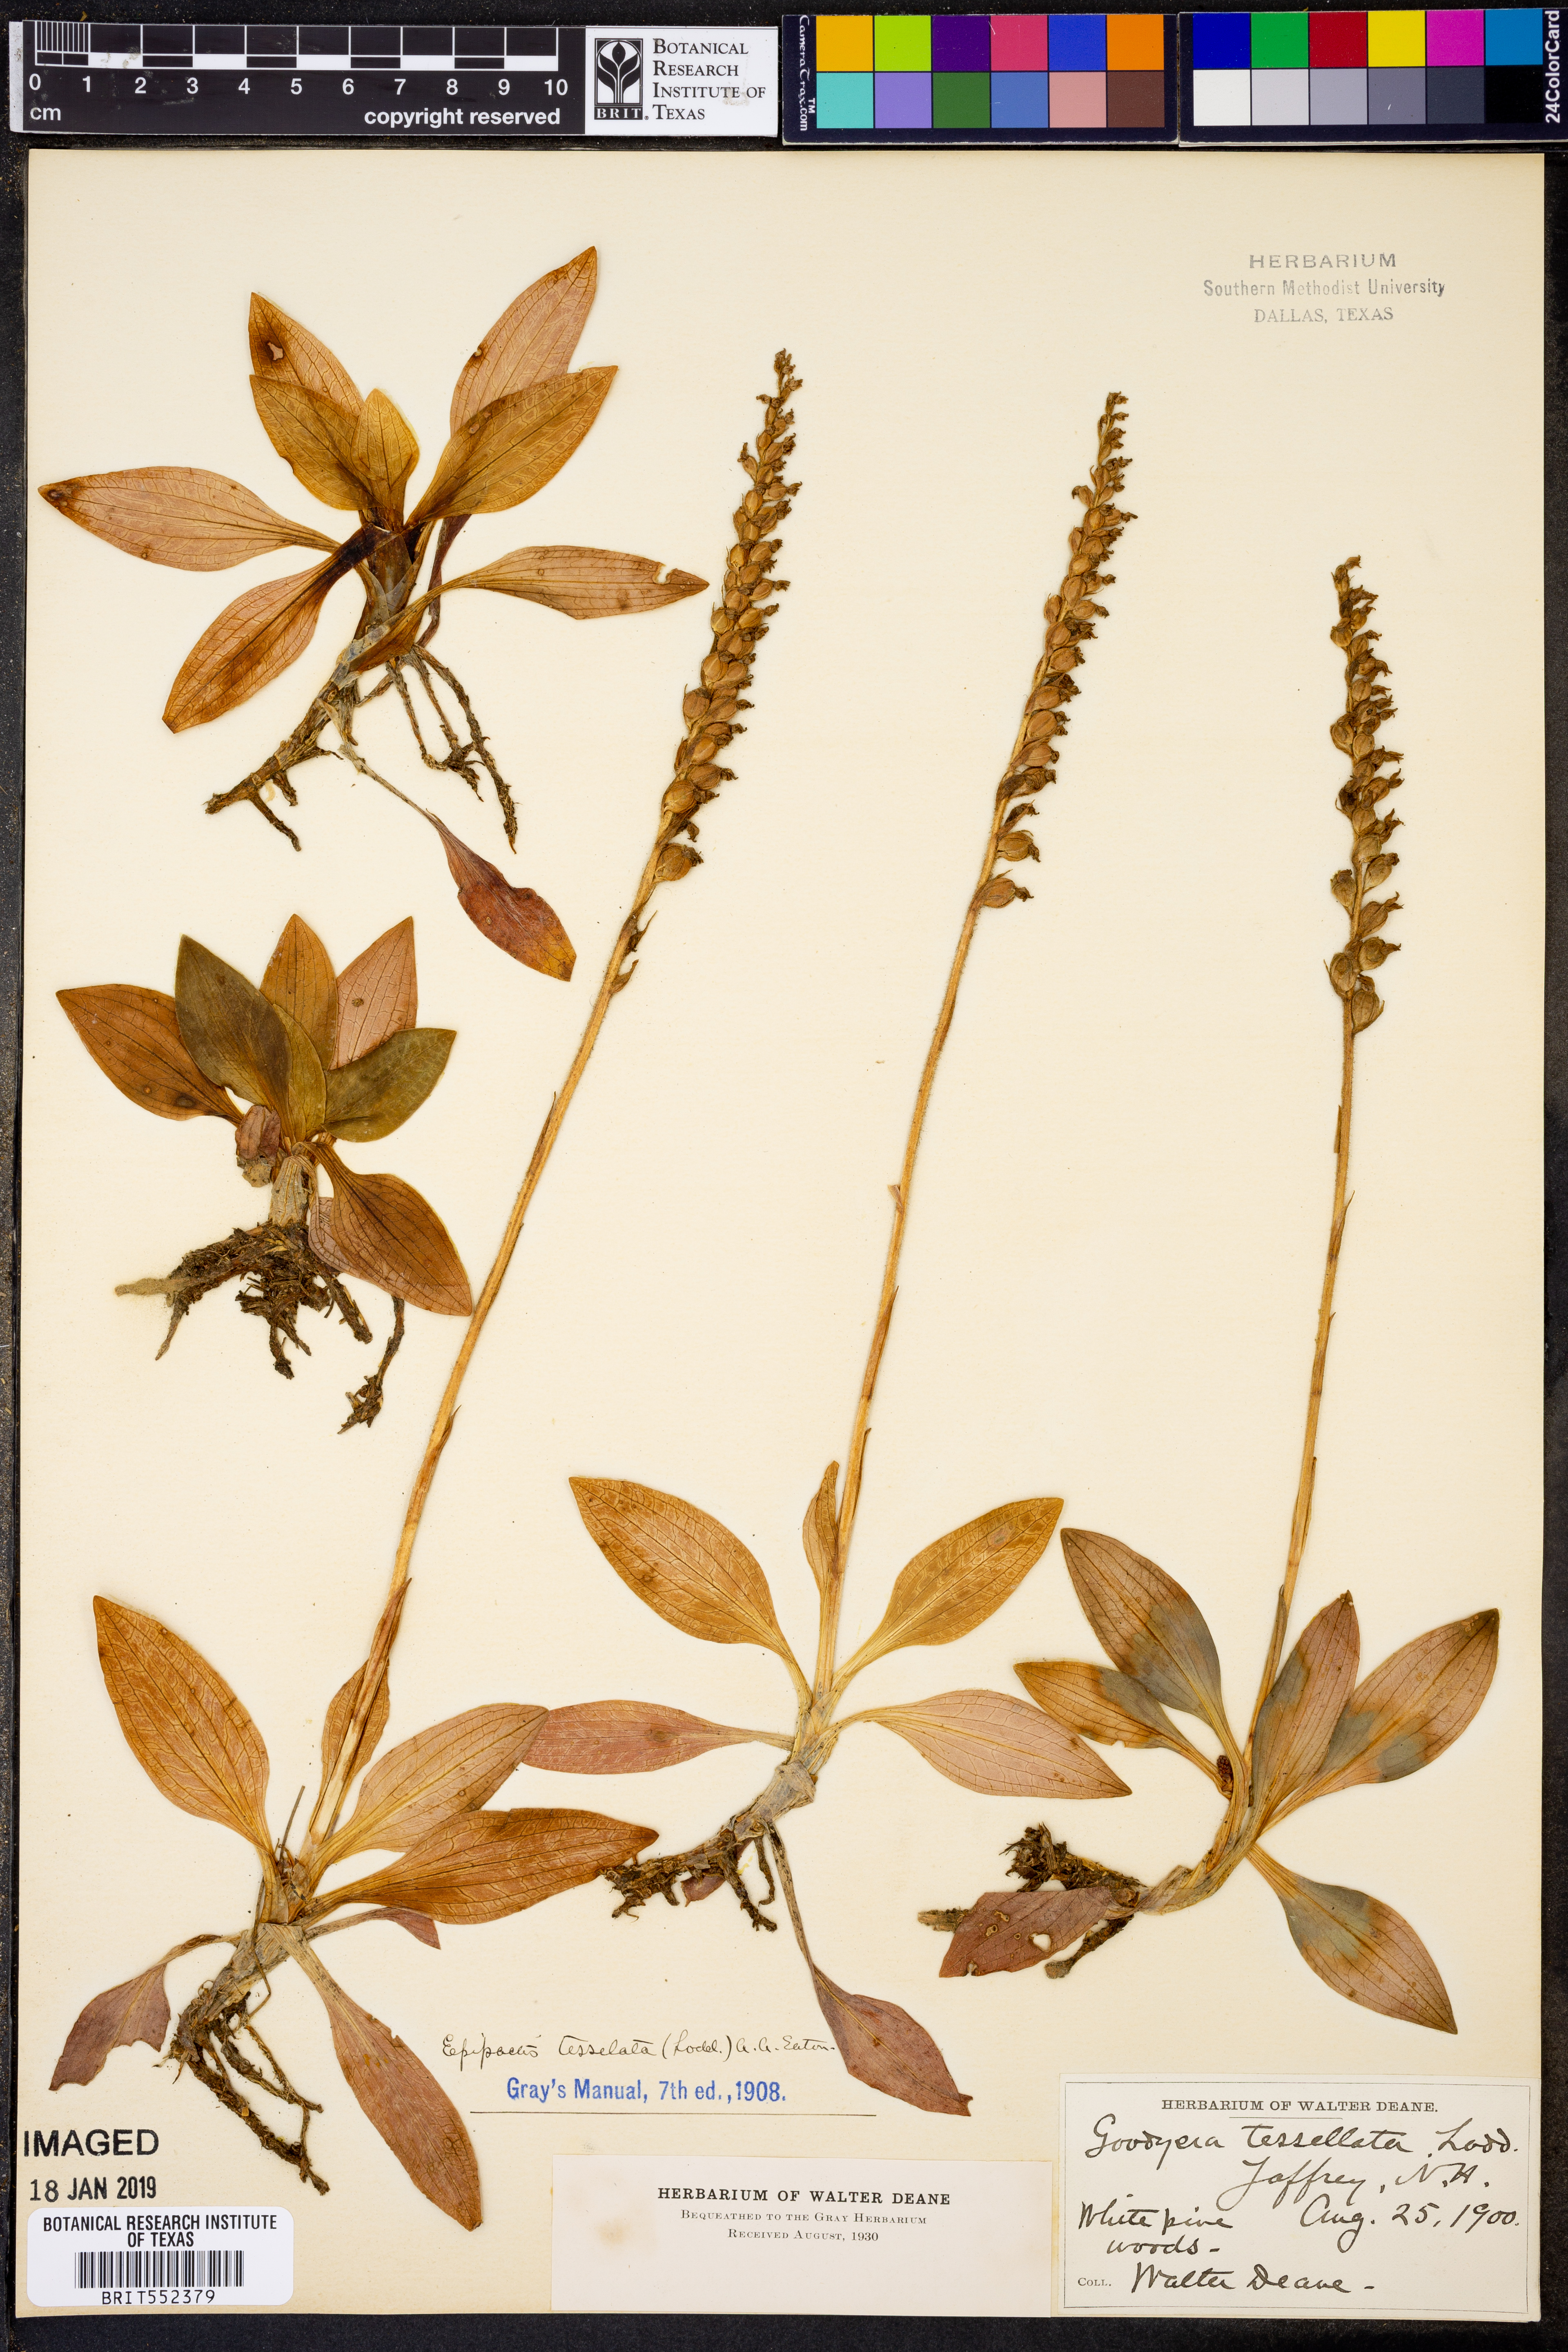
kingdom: Plantae
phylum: Tracheophyta
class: Liliopsida
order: Asparagales
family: Orchidaceae
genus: Goodyera
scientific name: Goodyera tesselata
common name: Checkered rattlesnake-plantain
